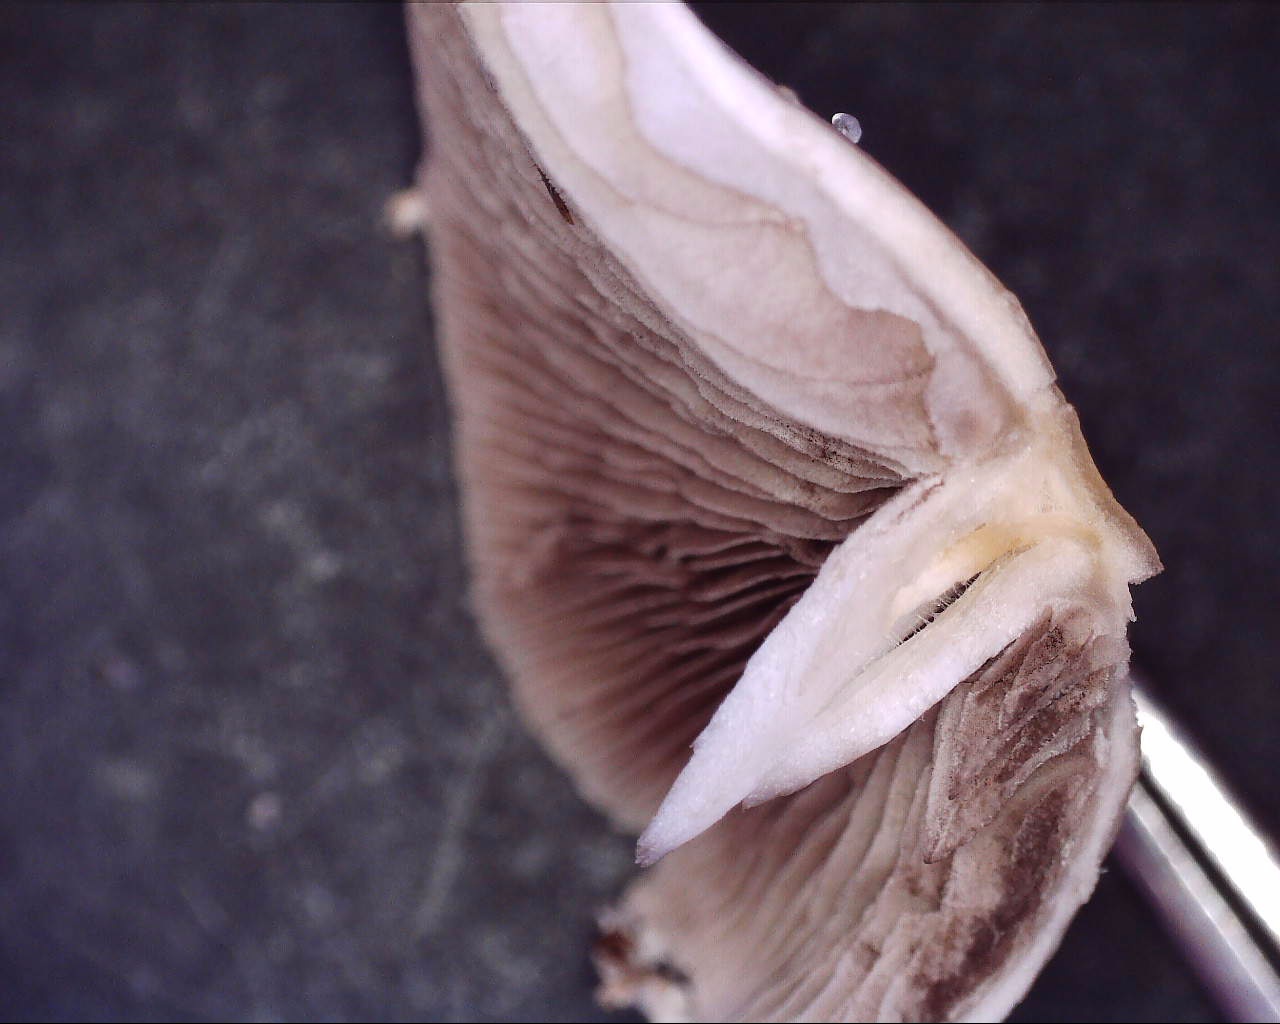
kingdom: Fungi
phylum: Basidiomycota
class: Agaricomycetes
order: Agaricales
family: Psathyrellaceae
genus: Candolleomyces
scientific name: Candolleomyces candolleanus
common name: Candolles mørkhat
